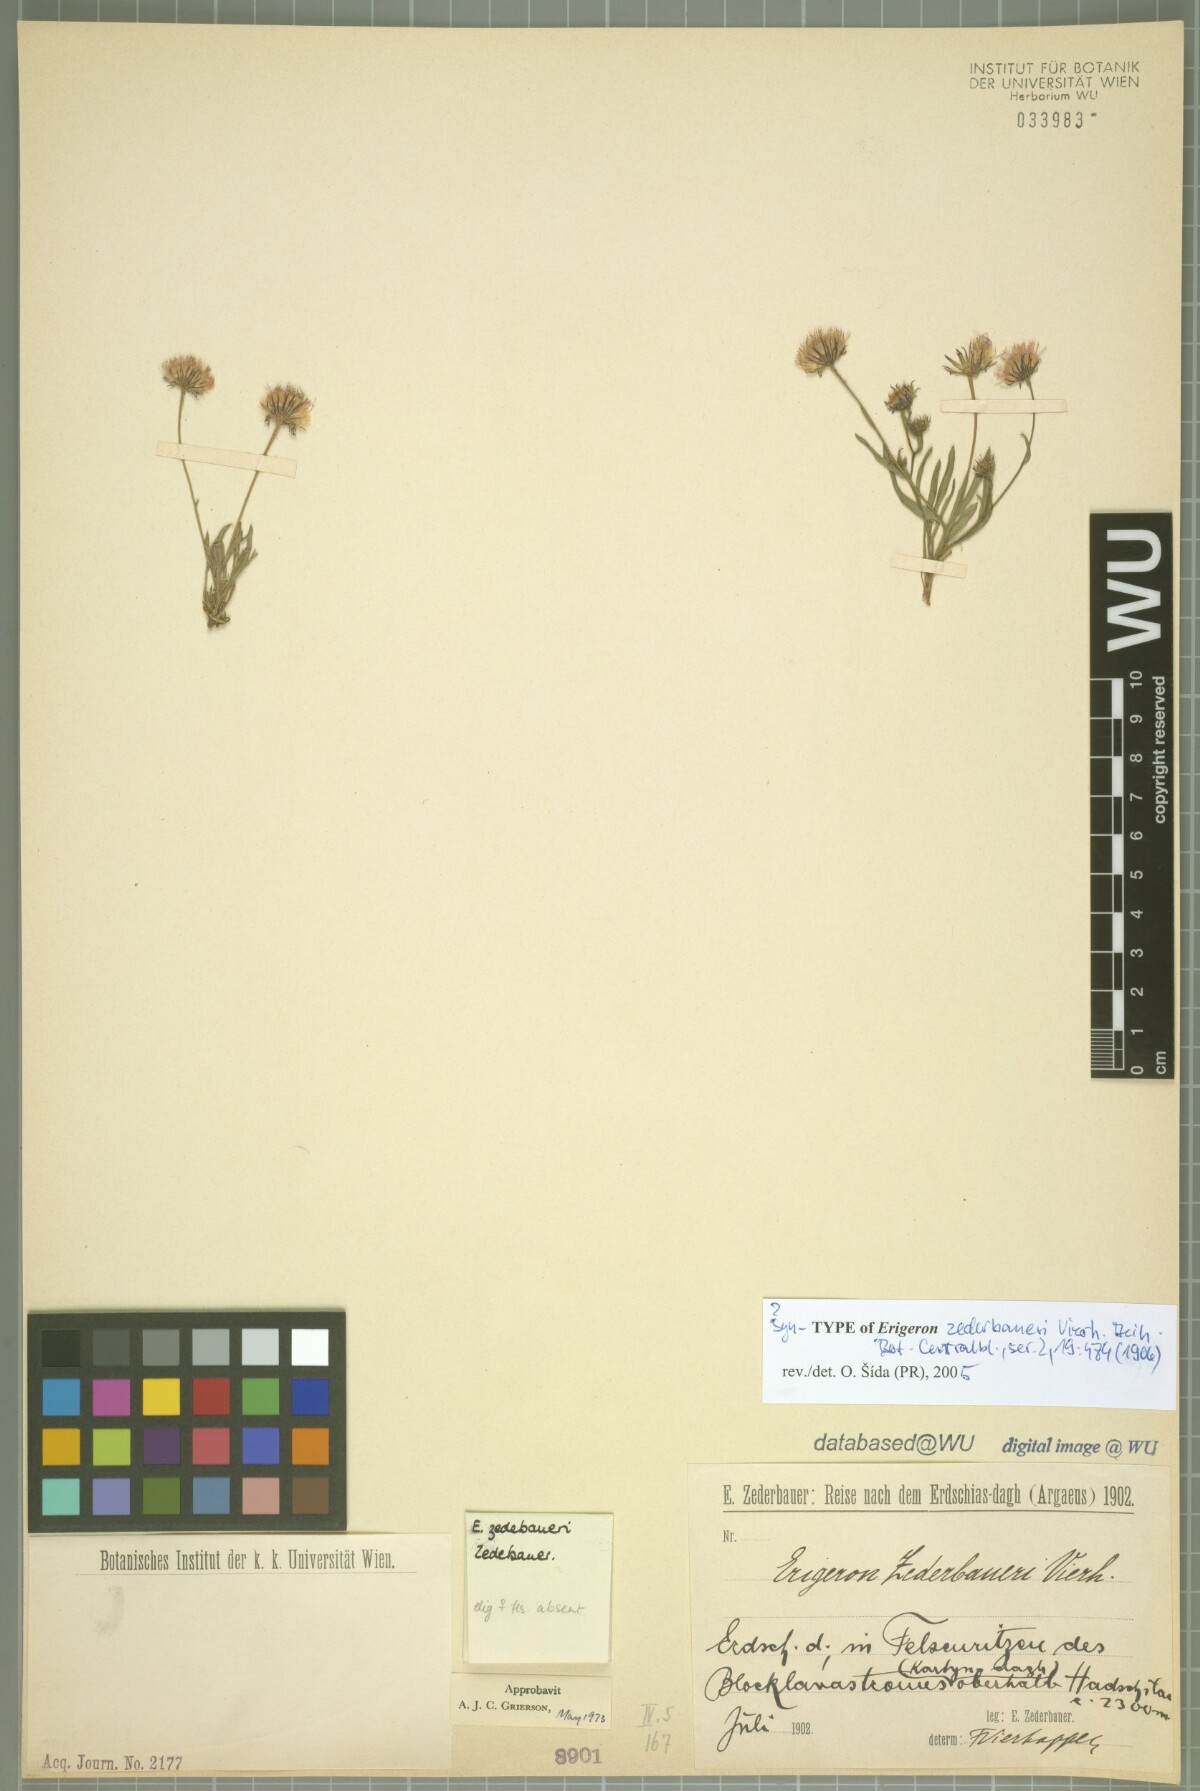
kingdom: Plantae
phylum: Tracheophyta
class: Magnoliopsida
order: Asterales
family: Asteraceae
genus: Erigeron
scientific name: Erigeron zederbaueri
